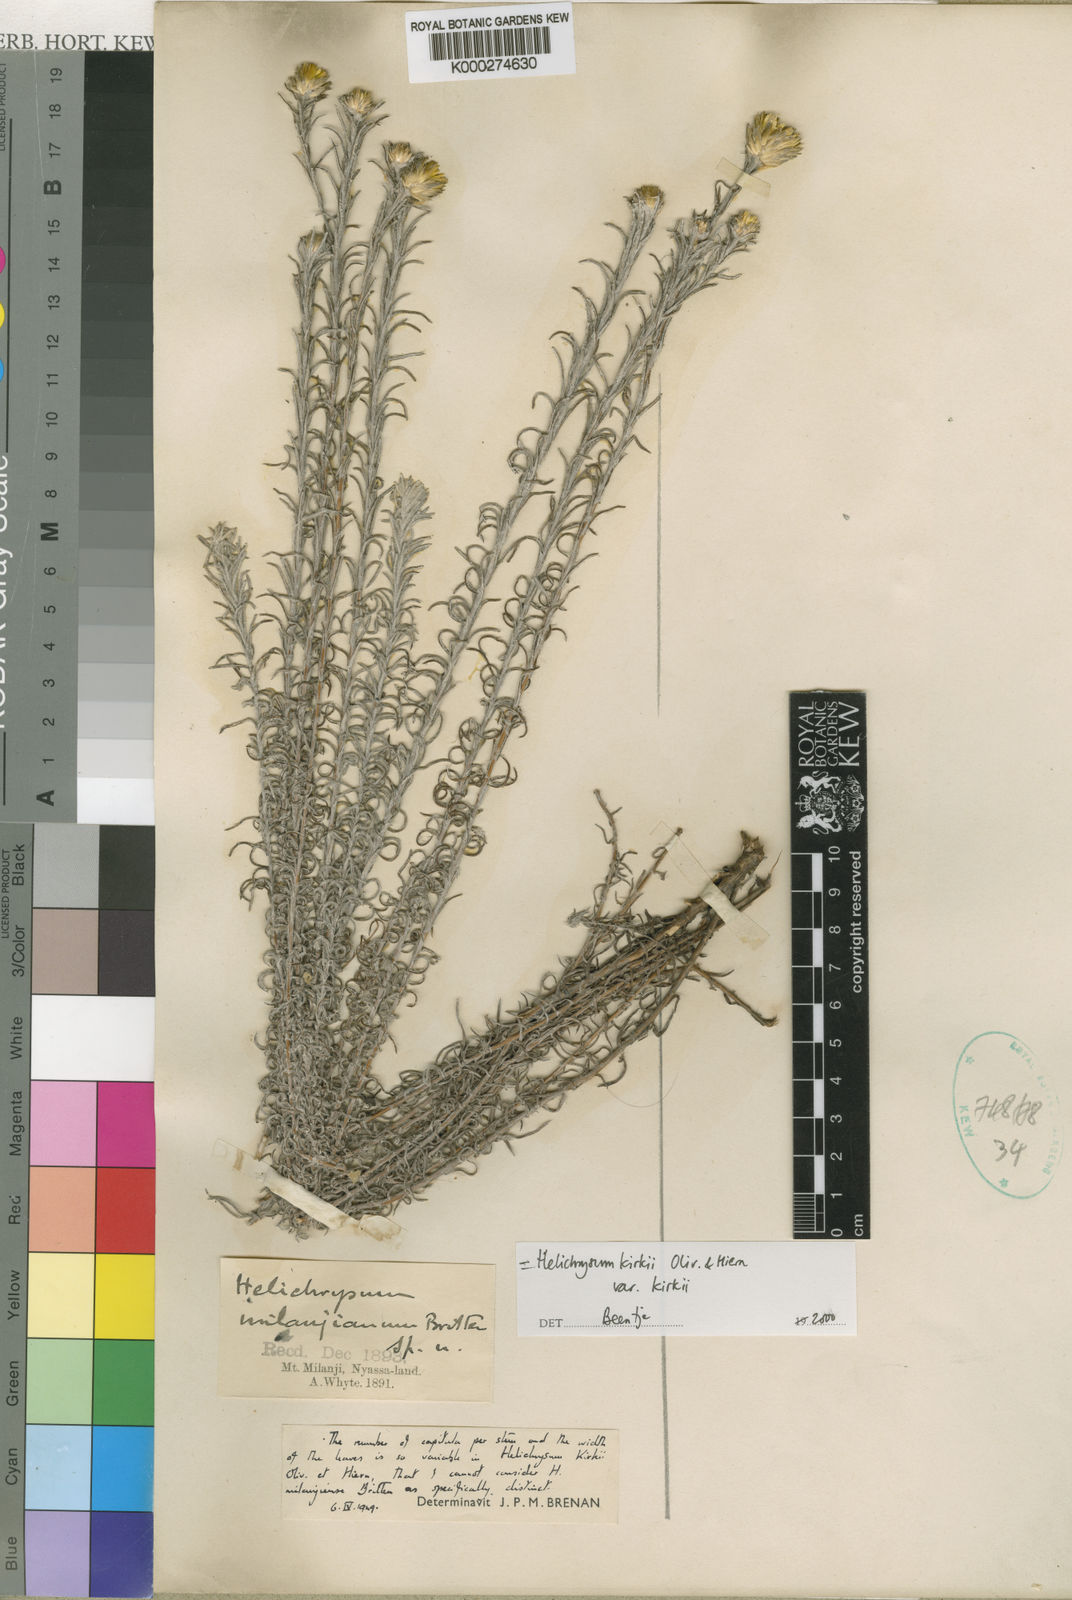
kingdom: Plantae
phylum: Tracheophyta
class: Magnoliopsida
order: Asterales
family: Asteraceae
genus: Helichrysum
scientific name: Helichrysum kirkii
